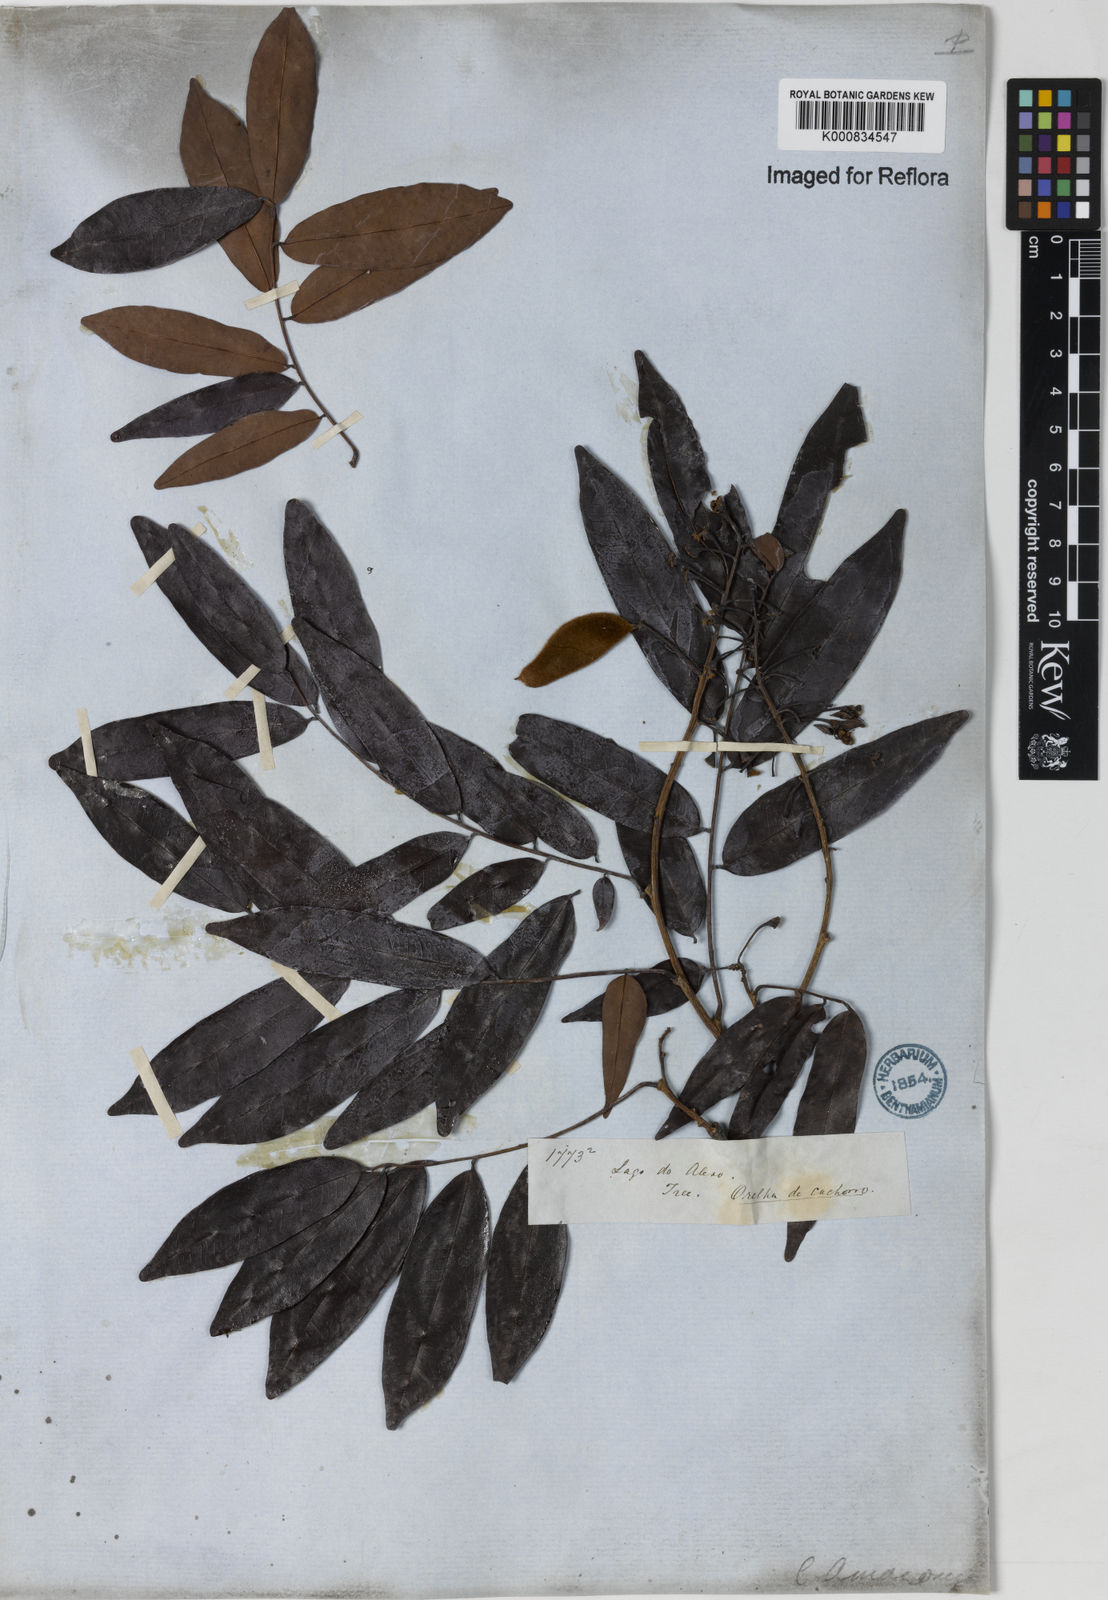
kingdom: Plantae
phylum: Tracheophyta
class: Magnoliopsida
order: Fabales
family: Fabaceae
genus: Crudia
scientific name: Crudia
